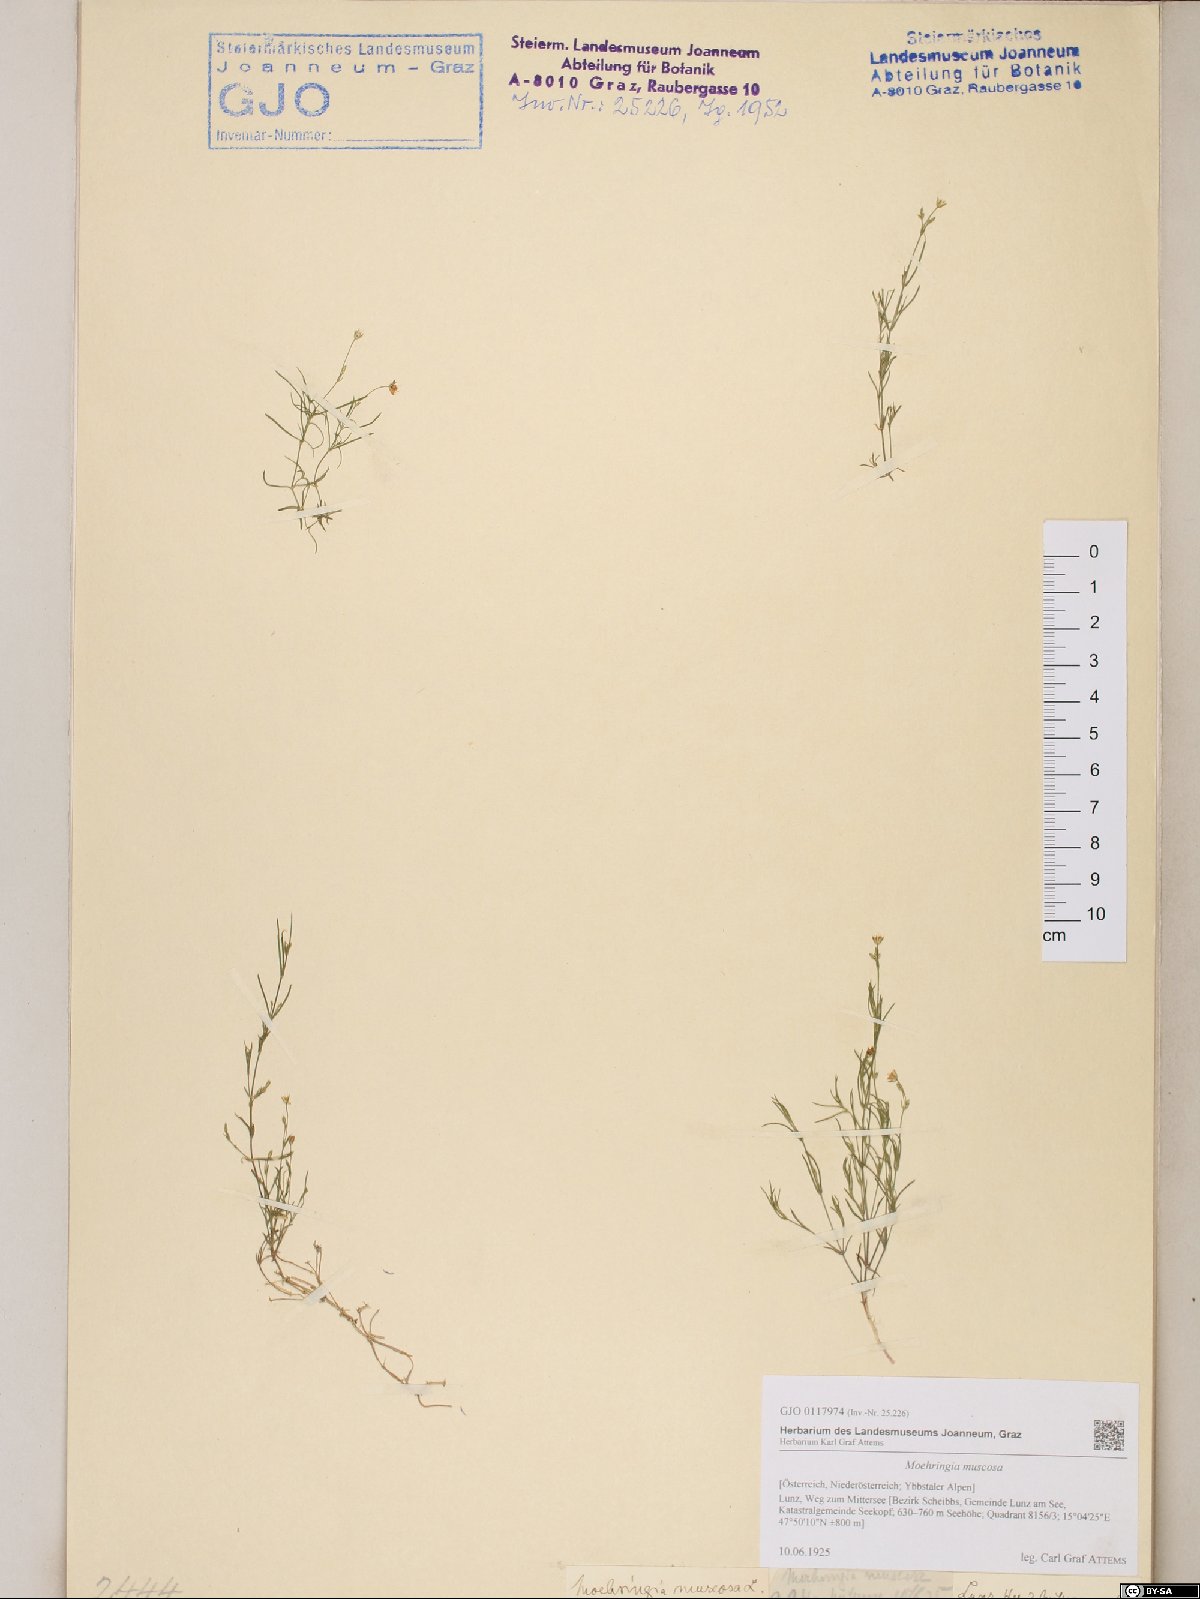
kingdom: Plantae
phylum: Tracheophyta
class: Magnoliopsida
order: Caryophyllales
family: Caryophyllaceae
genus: Moehringia
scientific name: Moehringia muscosa
